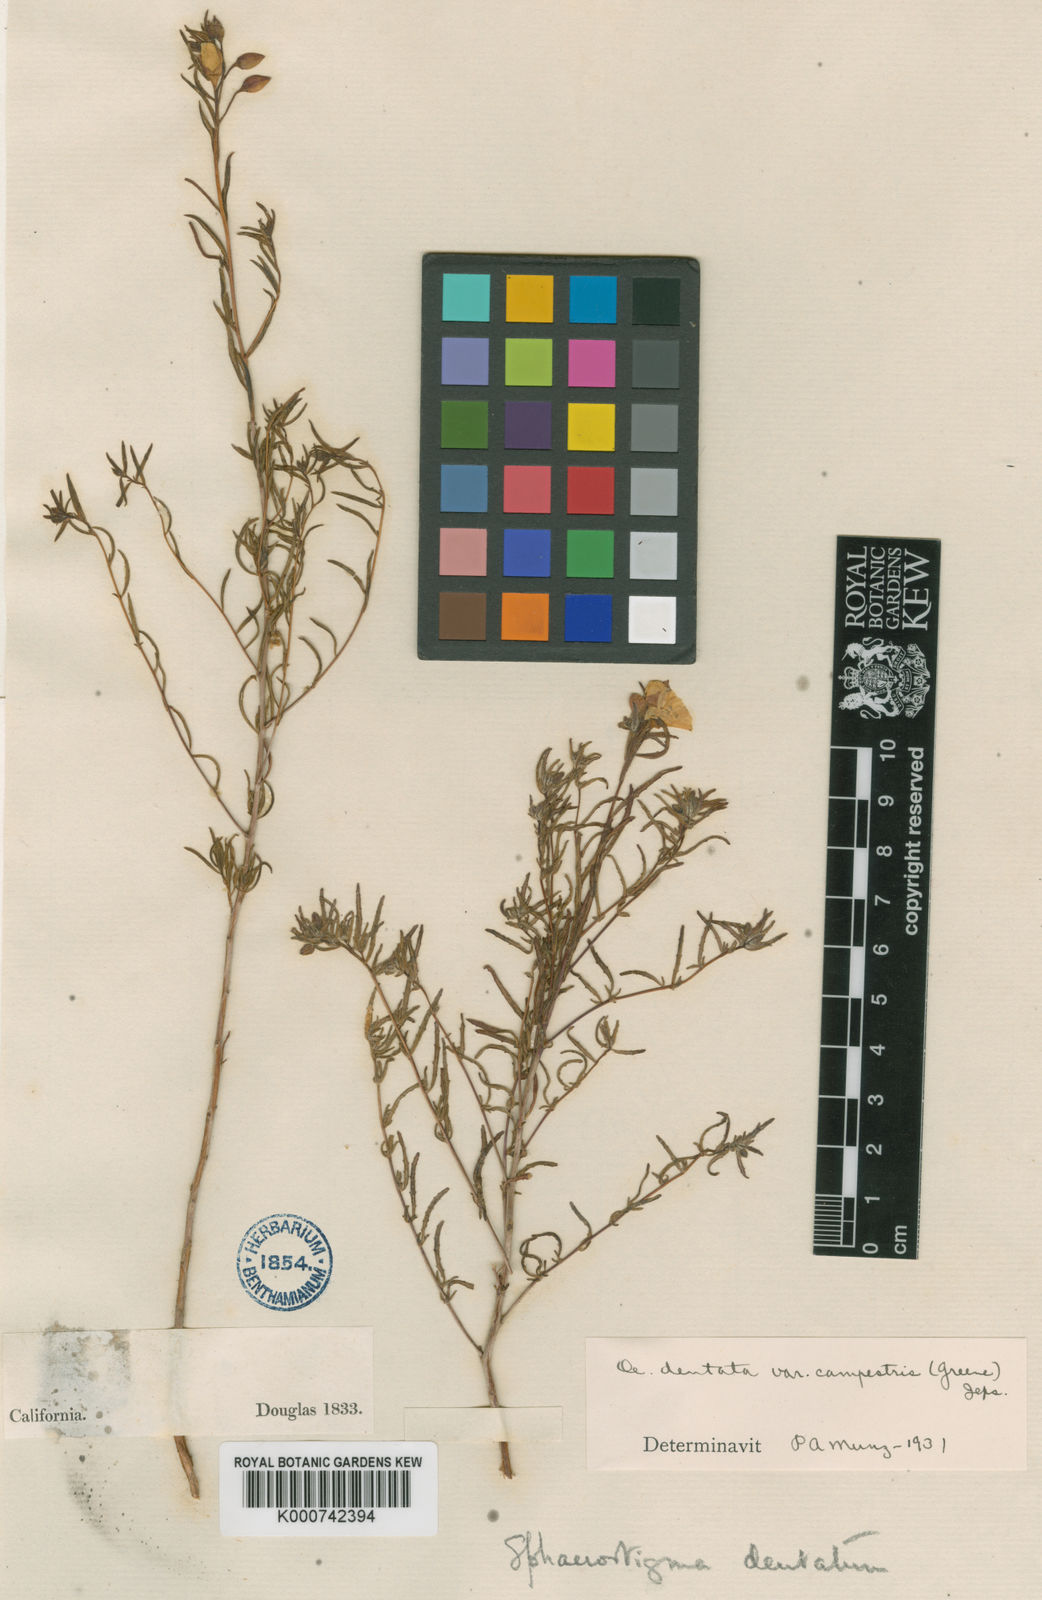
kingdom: Plantae
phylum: Tracheophyta
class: Magnoliopsida
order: Myrtales
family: Onagraceae
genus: Camissonia
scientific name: Camissonia campestris
